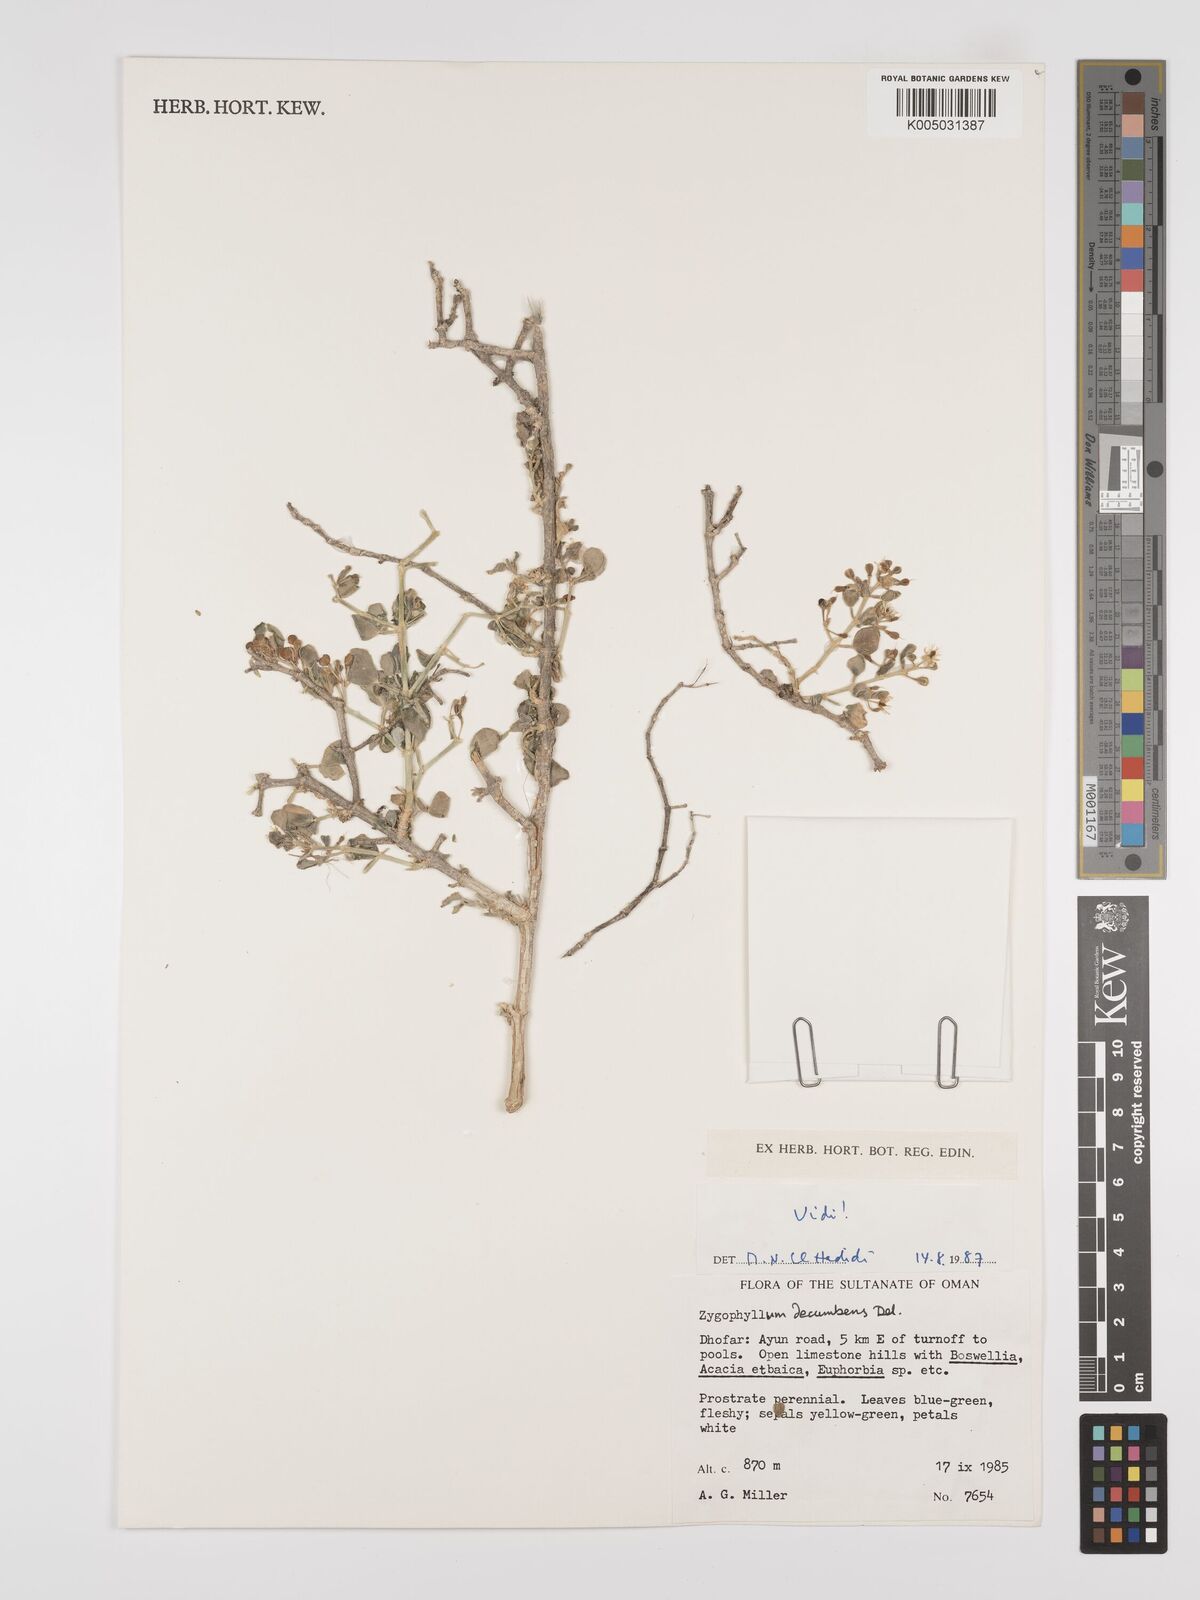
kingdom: Plantae
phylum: Tracheophyta
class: Magnoliopsida
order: Zygophyllales
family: Zygophyllaceae
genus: Tetraena
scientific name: Tetraena decumbens
